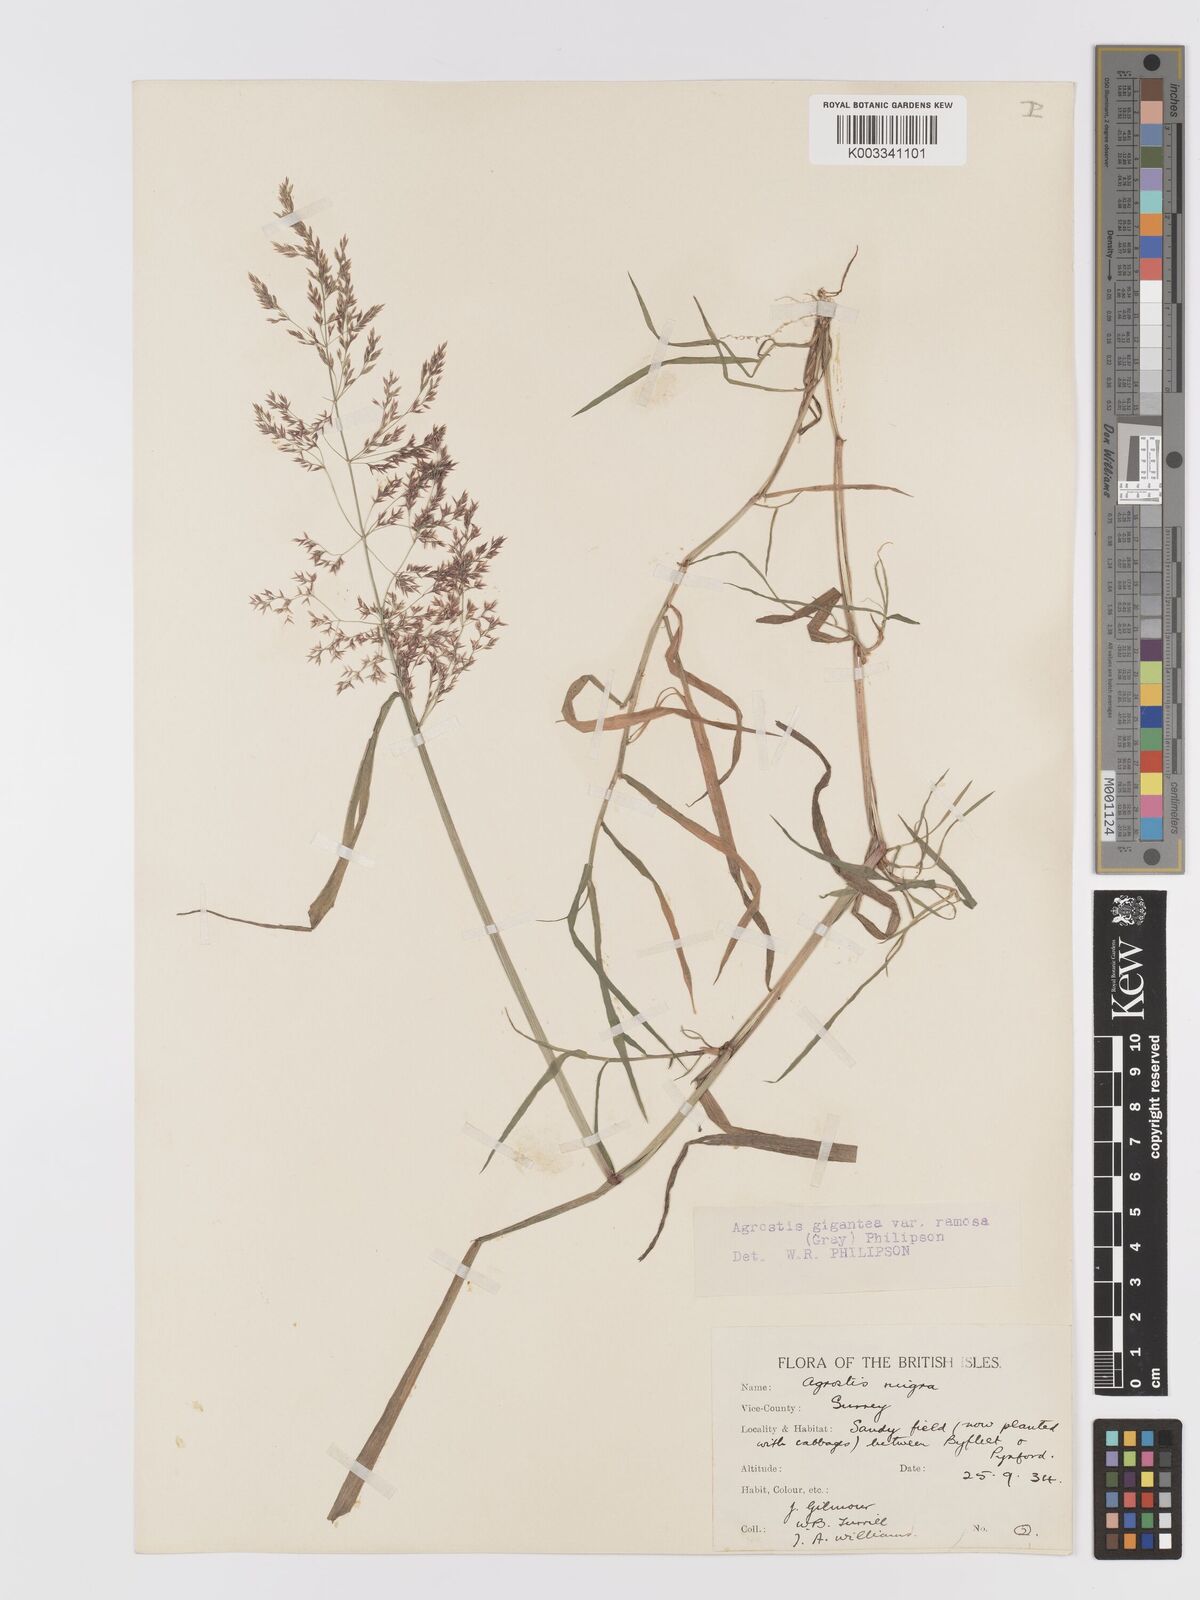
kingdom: Plantae
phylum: Tracheophyta
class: Liliopsida
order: Poales
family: Poaceae
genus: Agrostis
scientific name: Agrostis gigantea
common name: Black bent
